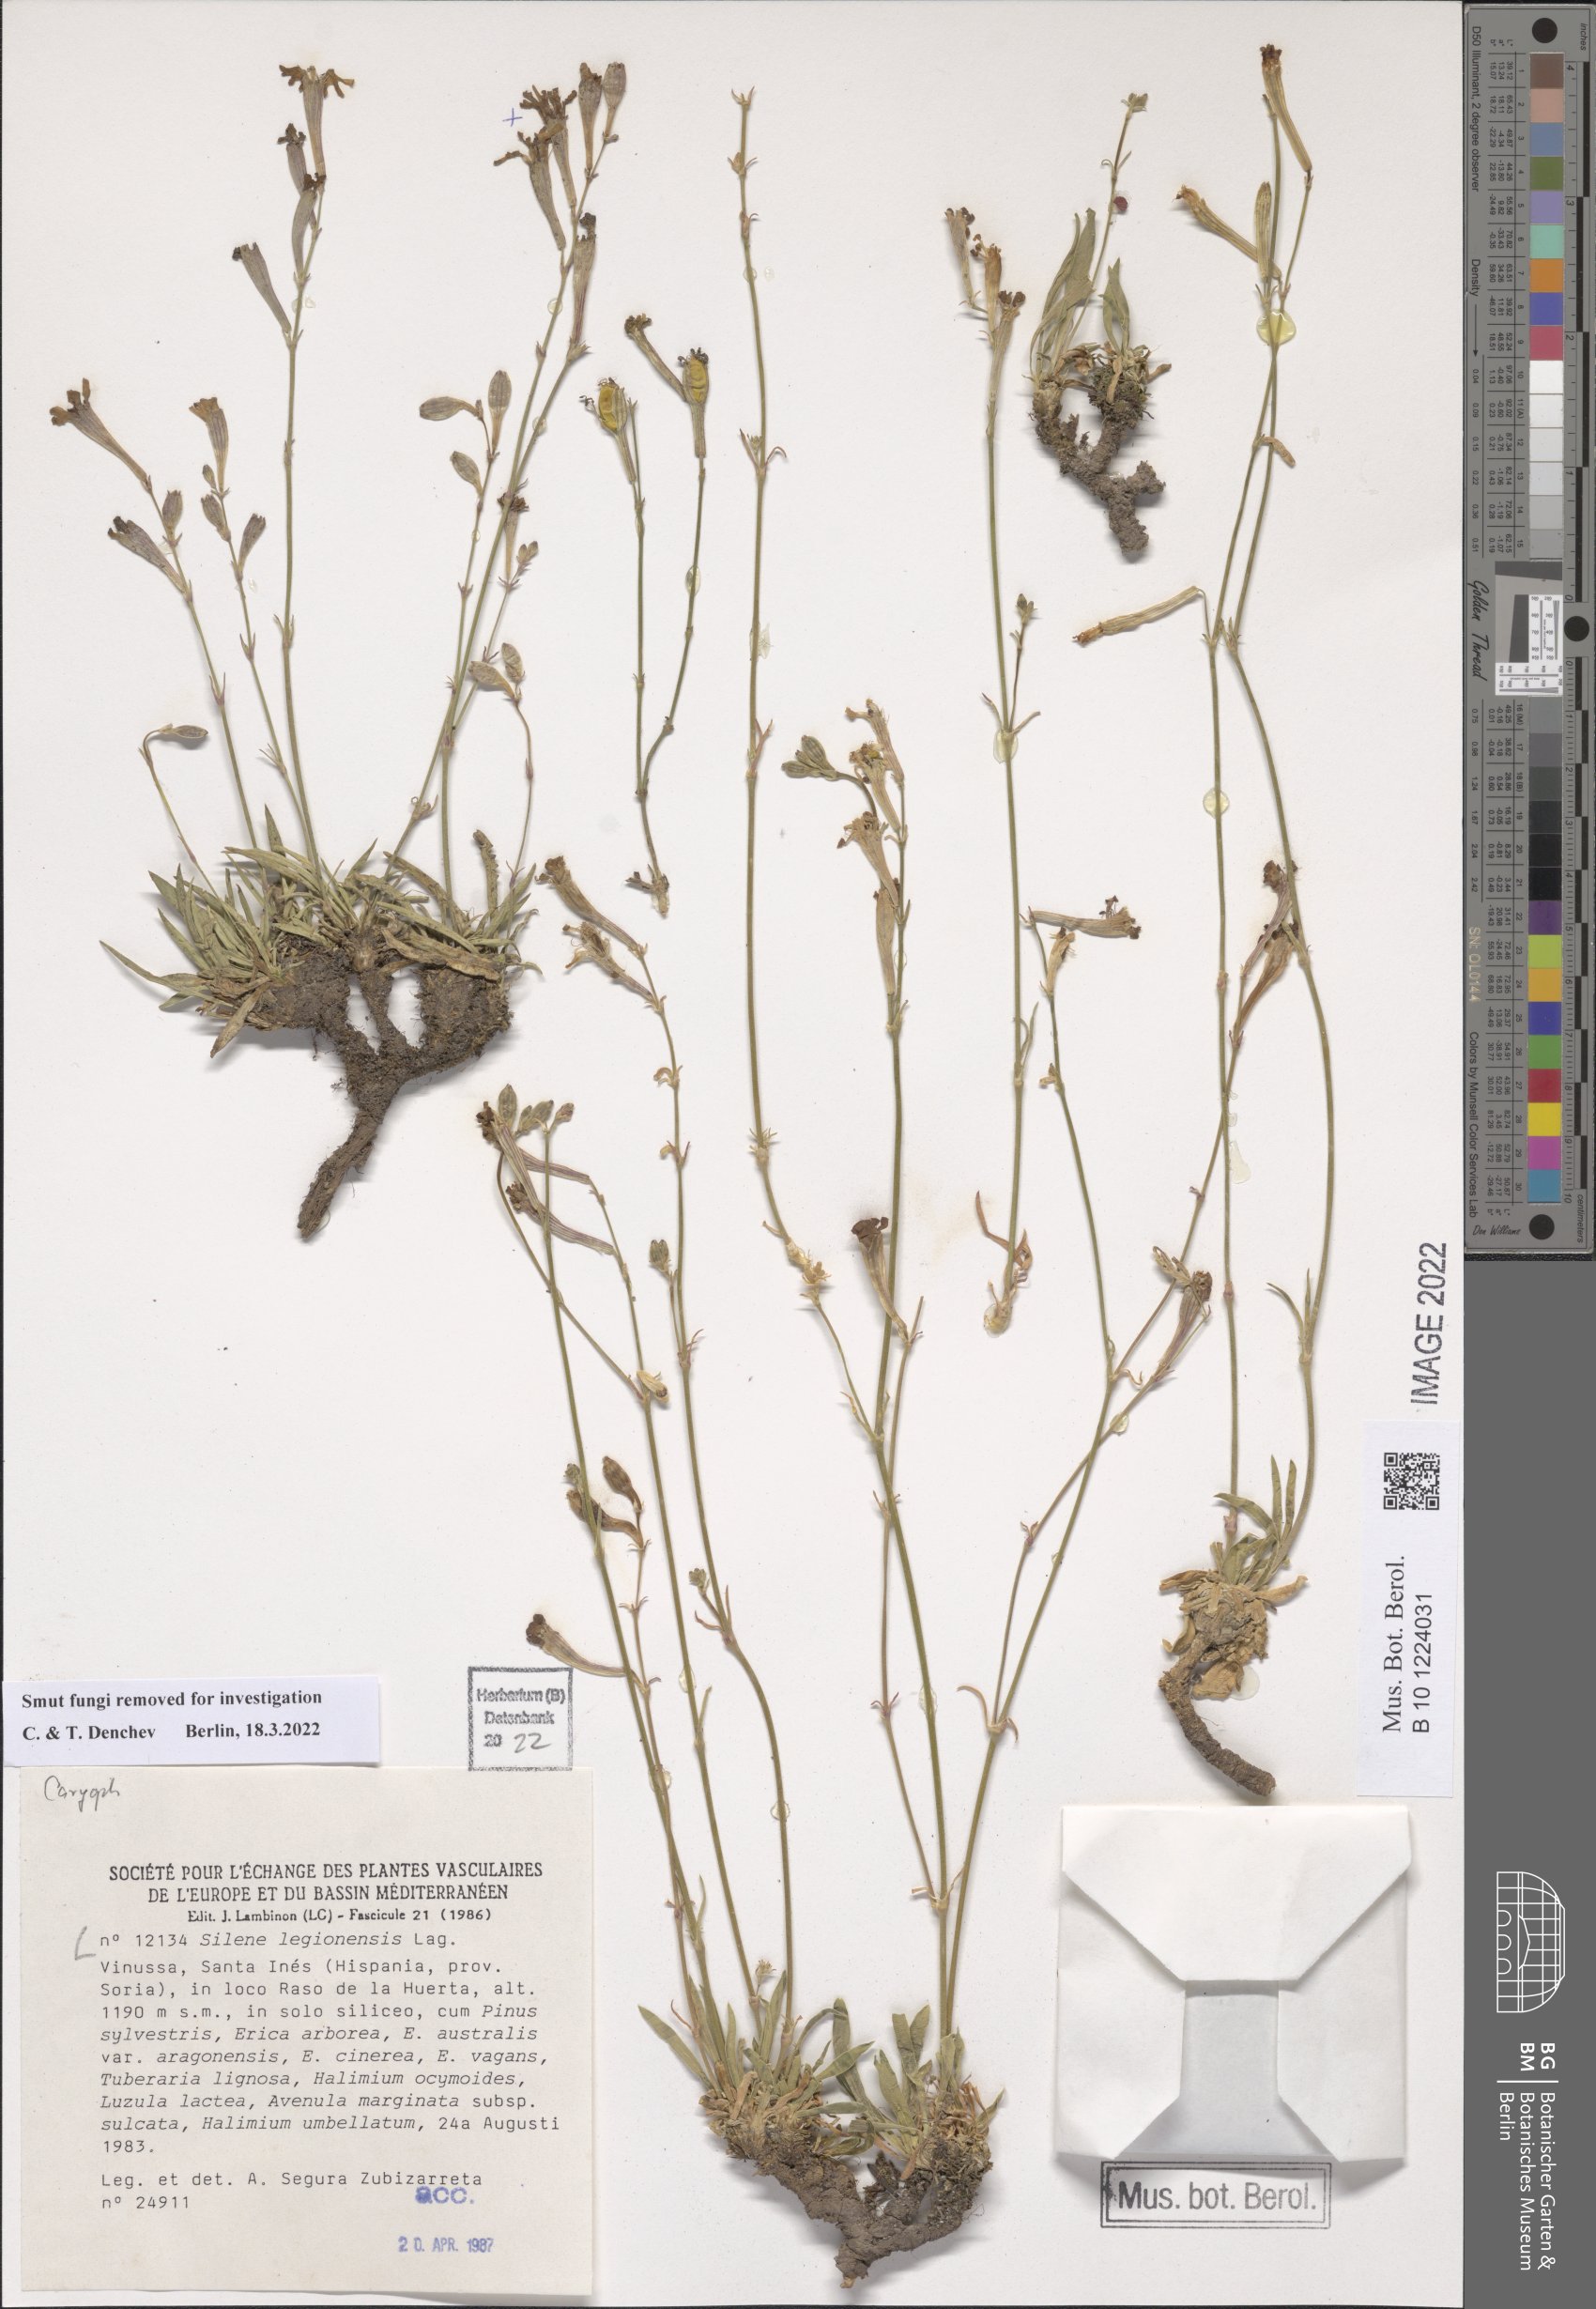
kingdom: Plantae
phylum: Tracheophyta
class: Magnoliopsida
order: Caryophyllales
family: Caryophyllaceae
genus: Silene
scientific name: Silene legionensis
